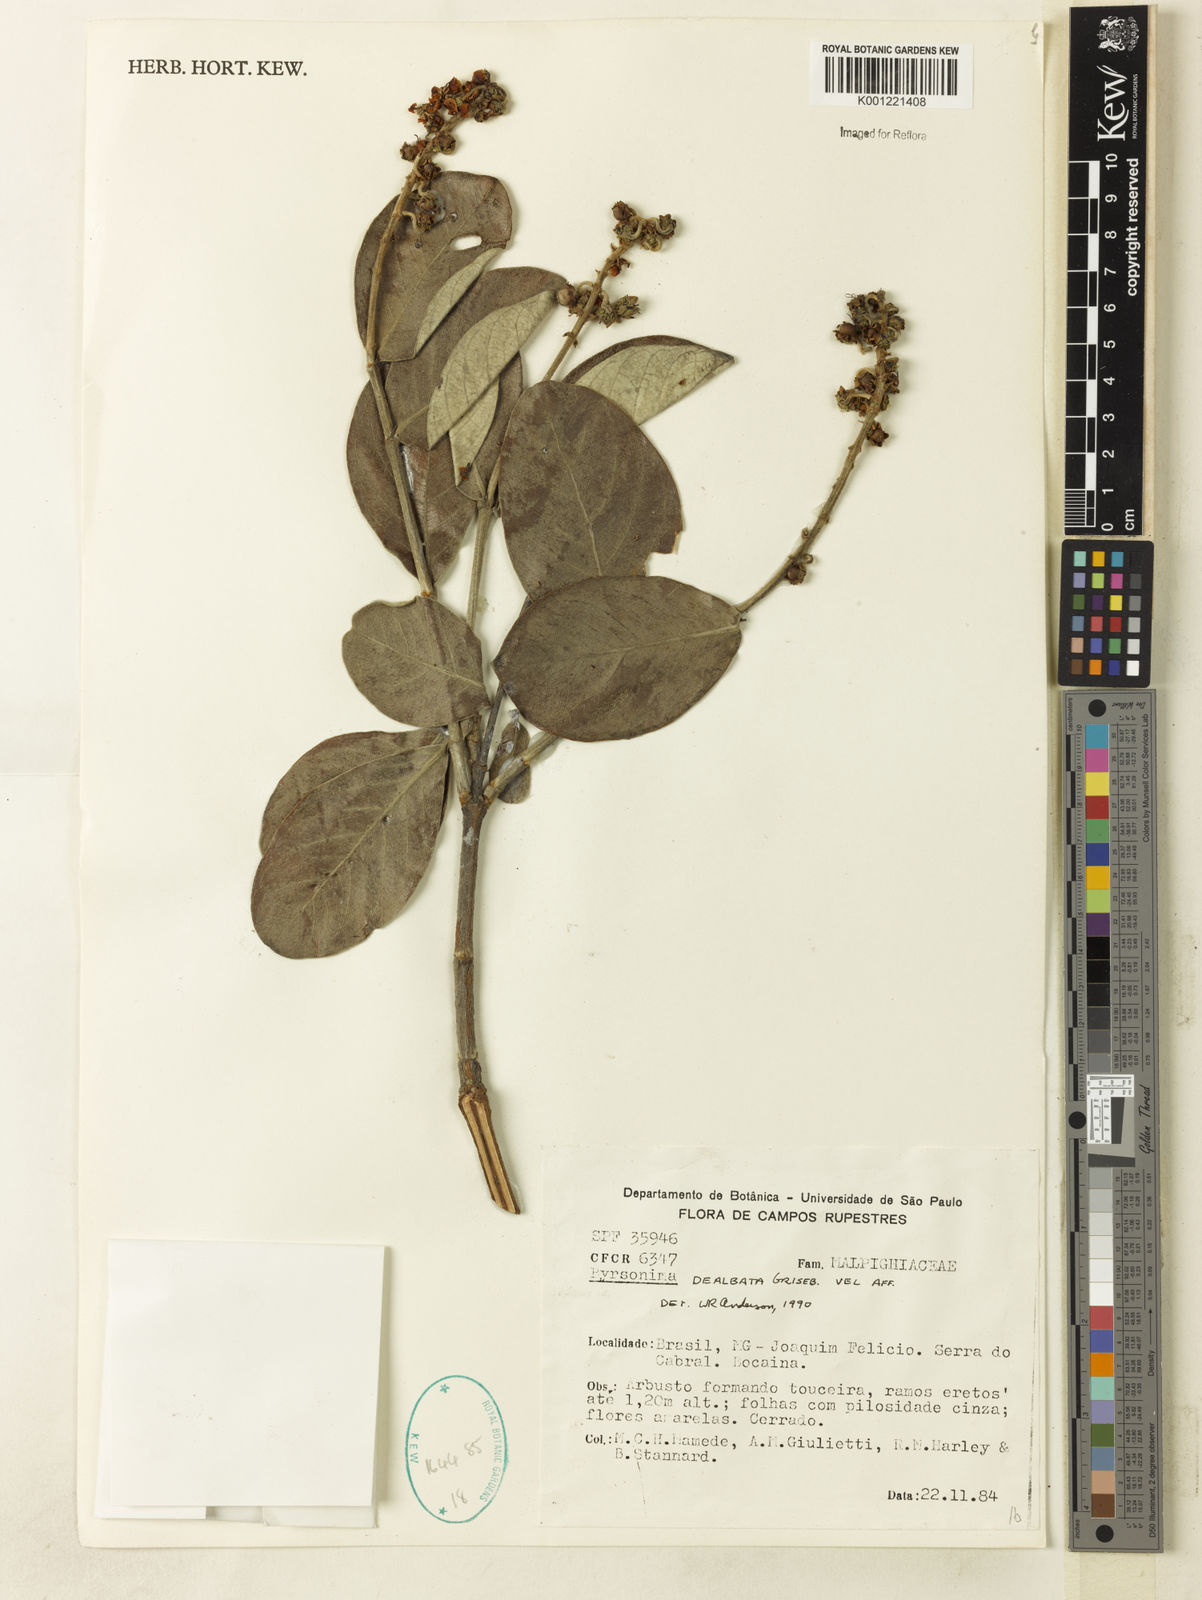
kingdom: Plantae
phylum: Tracheophyta
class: Magnoliopsida
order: Malpighiales
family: Malpighiaceae
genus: Byrsonima
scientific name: Byrsonima dealbata
